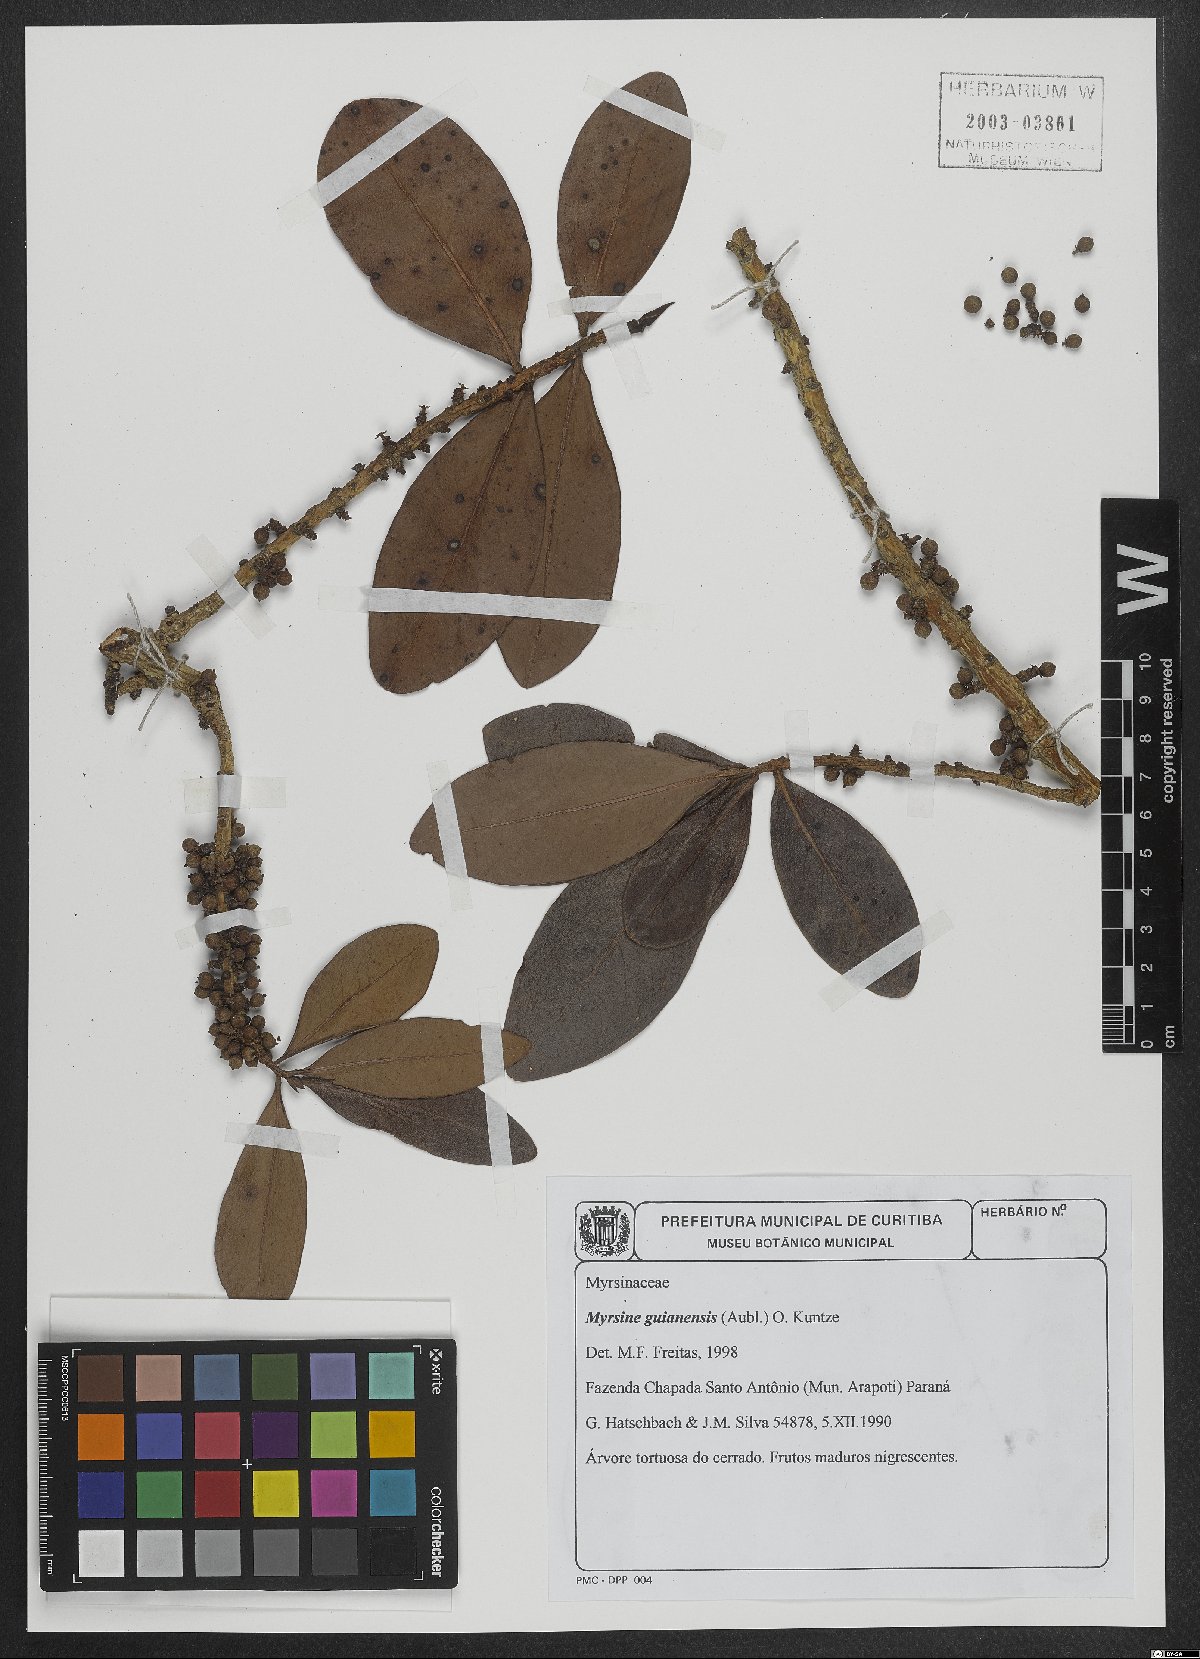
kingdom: Plantae
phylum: Tracheophyta
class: Magnoliopsida
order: Ericales
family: Primulaceae
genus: Myrsine
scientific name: Myrsine guianensis
